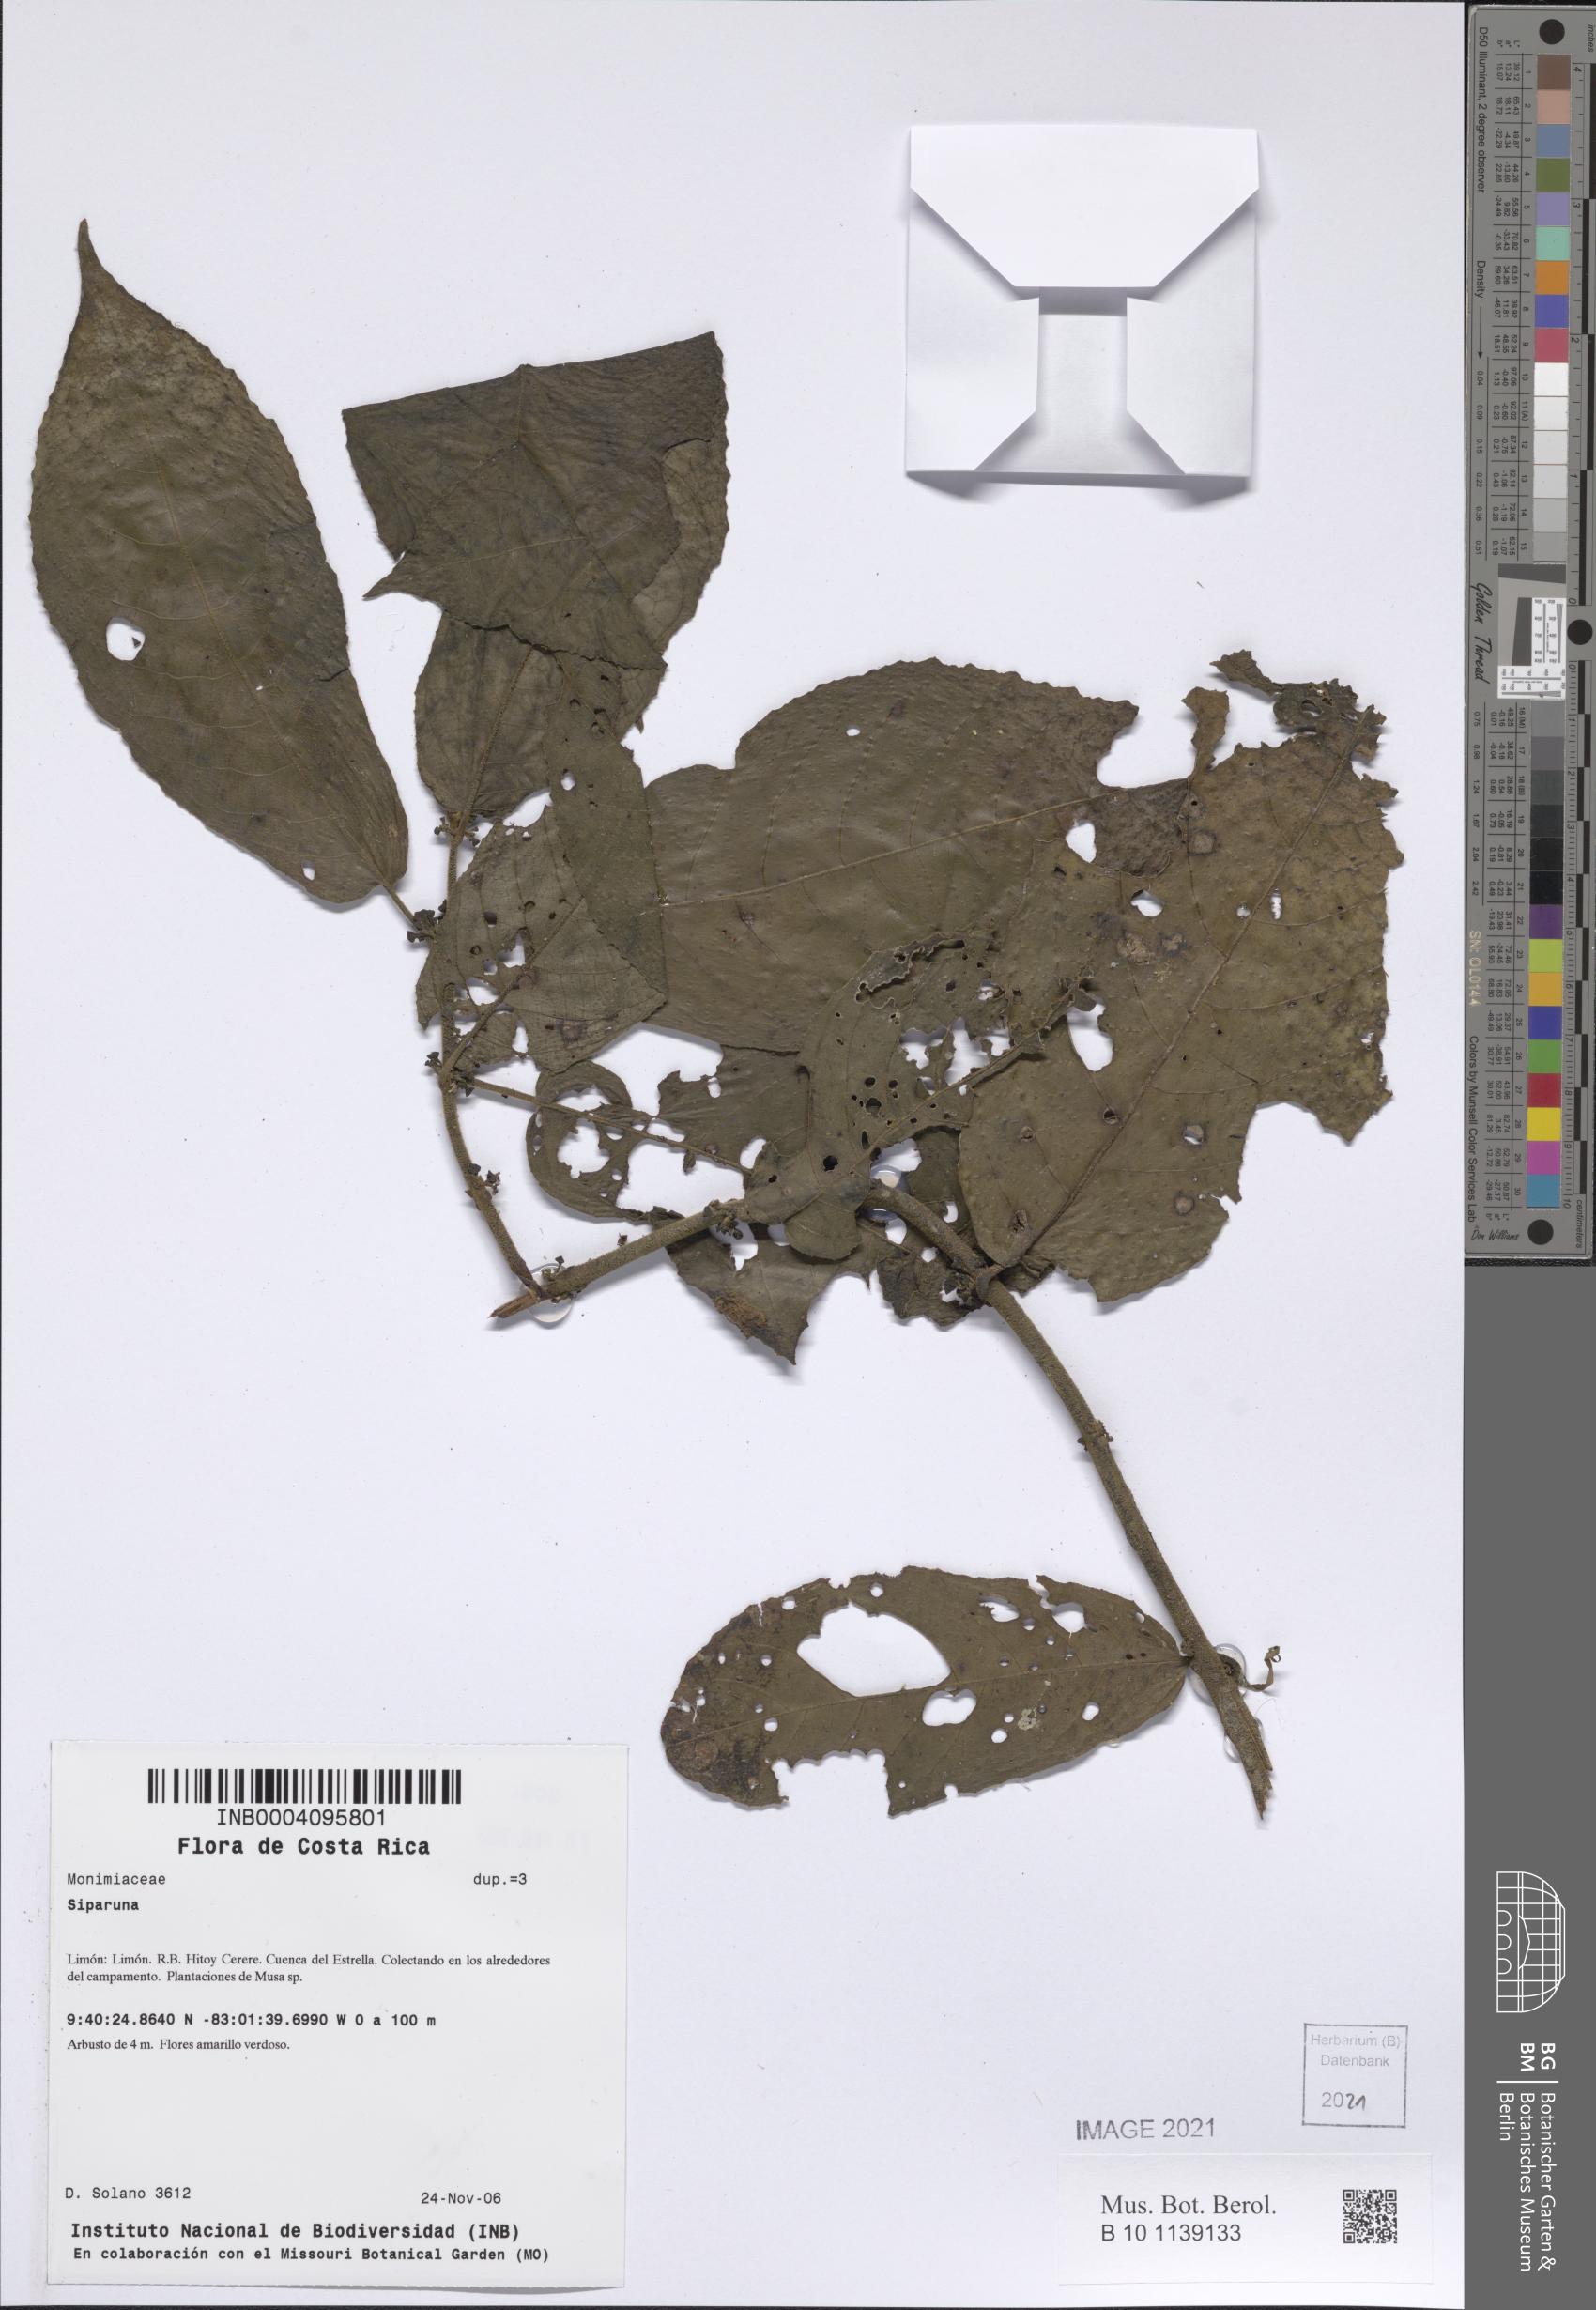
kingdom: Plantae
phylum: Tracheophyta
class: Magnoliopsida
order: Laurales
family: Siparunaceae
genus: Siparuna
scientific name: Siparuna
